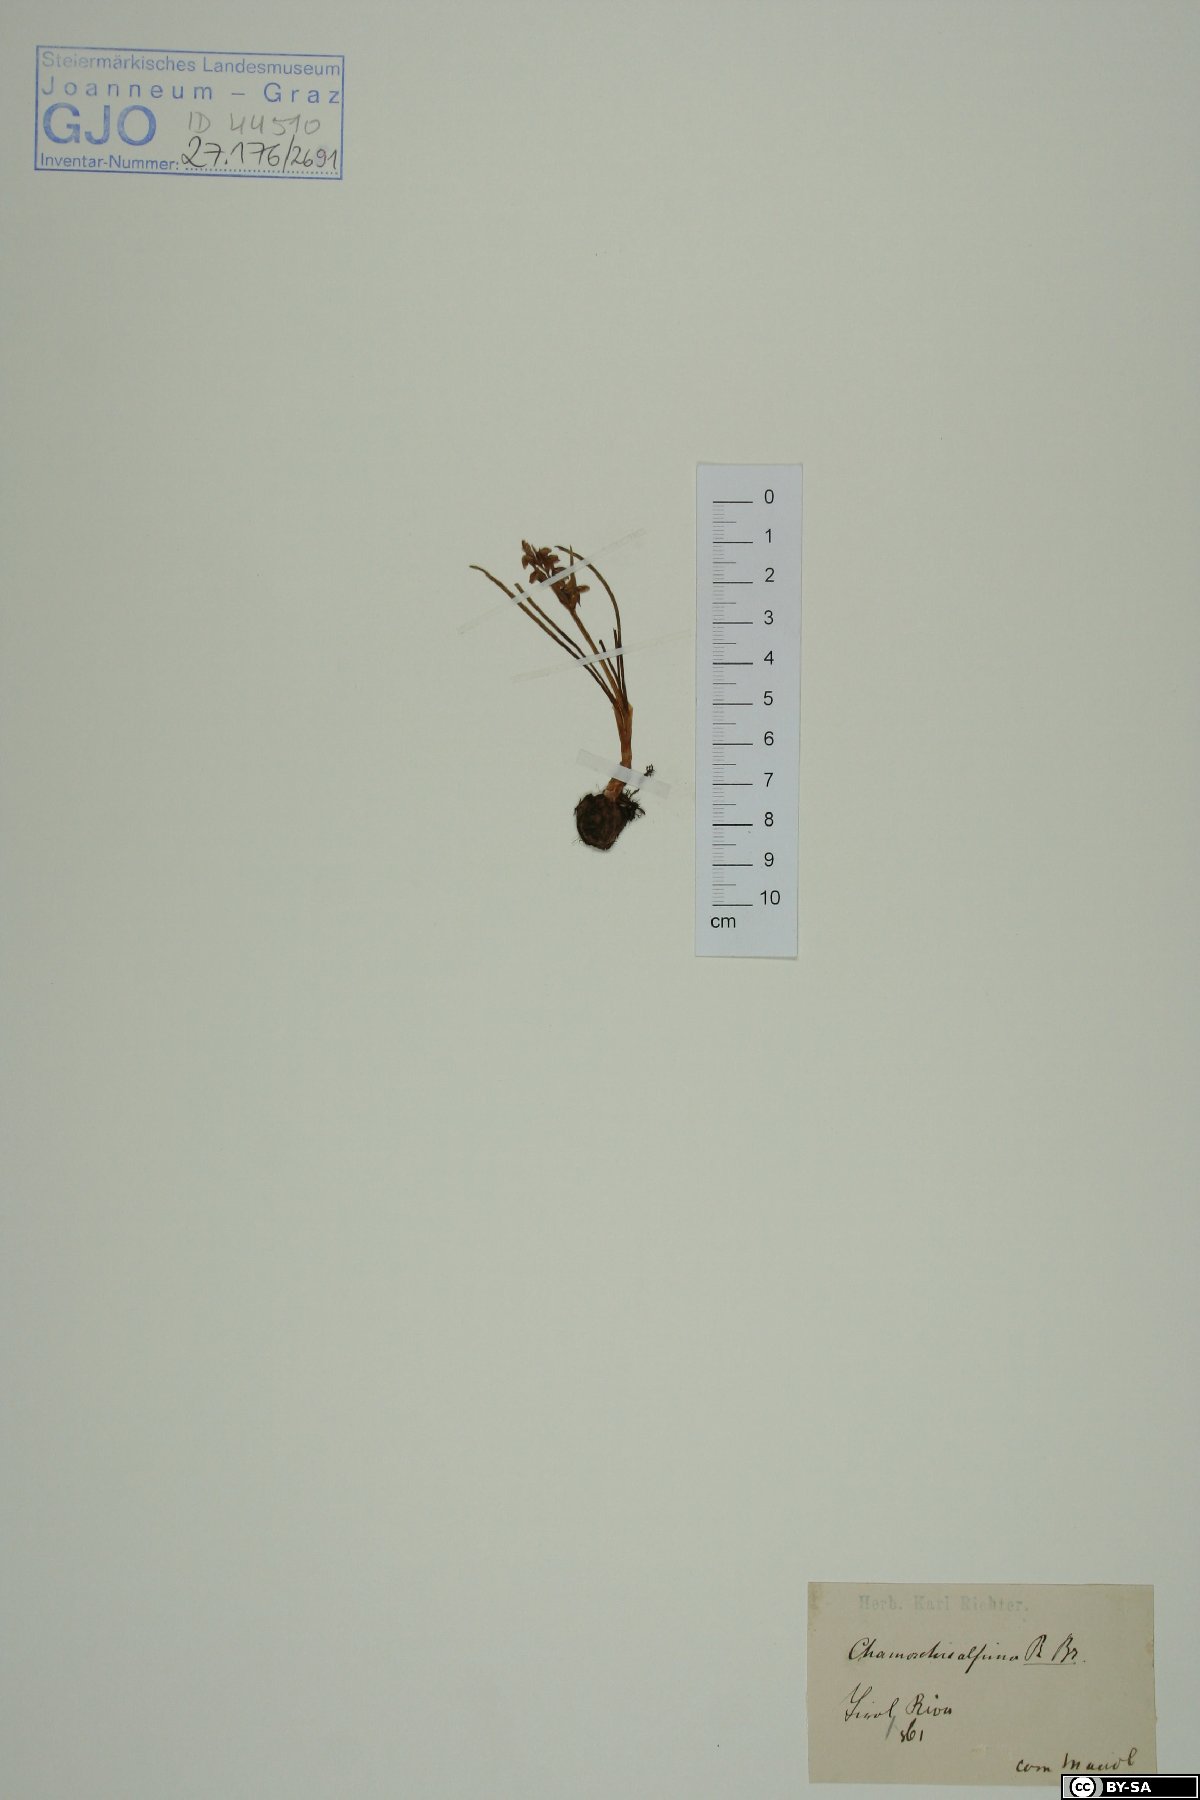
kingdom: Plantae
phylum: Tracheophyta
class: Liliopsida
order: Asparagales
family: Orchidaceae
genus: Chamorchis
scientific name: Chamorchis alpina
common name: Alpine chamorchis
